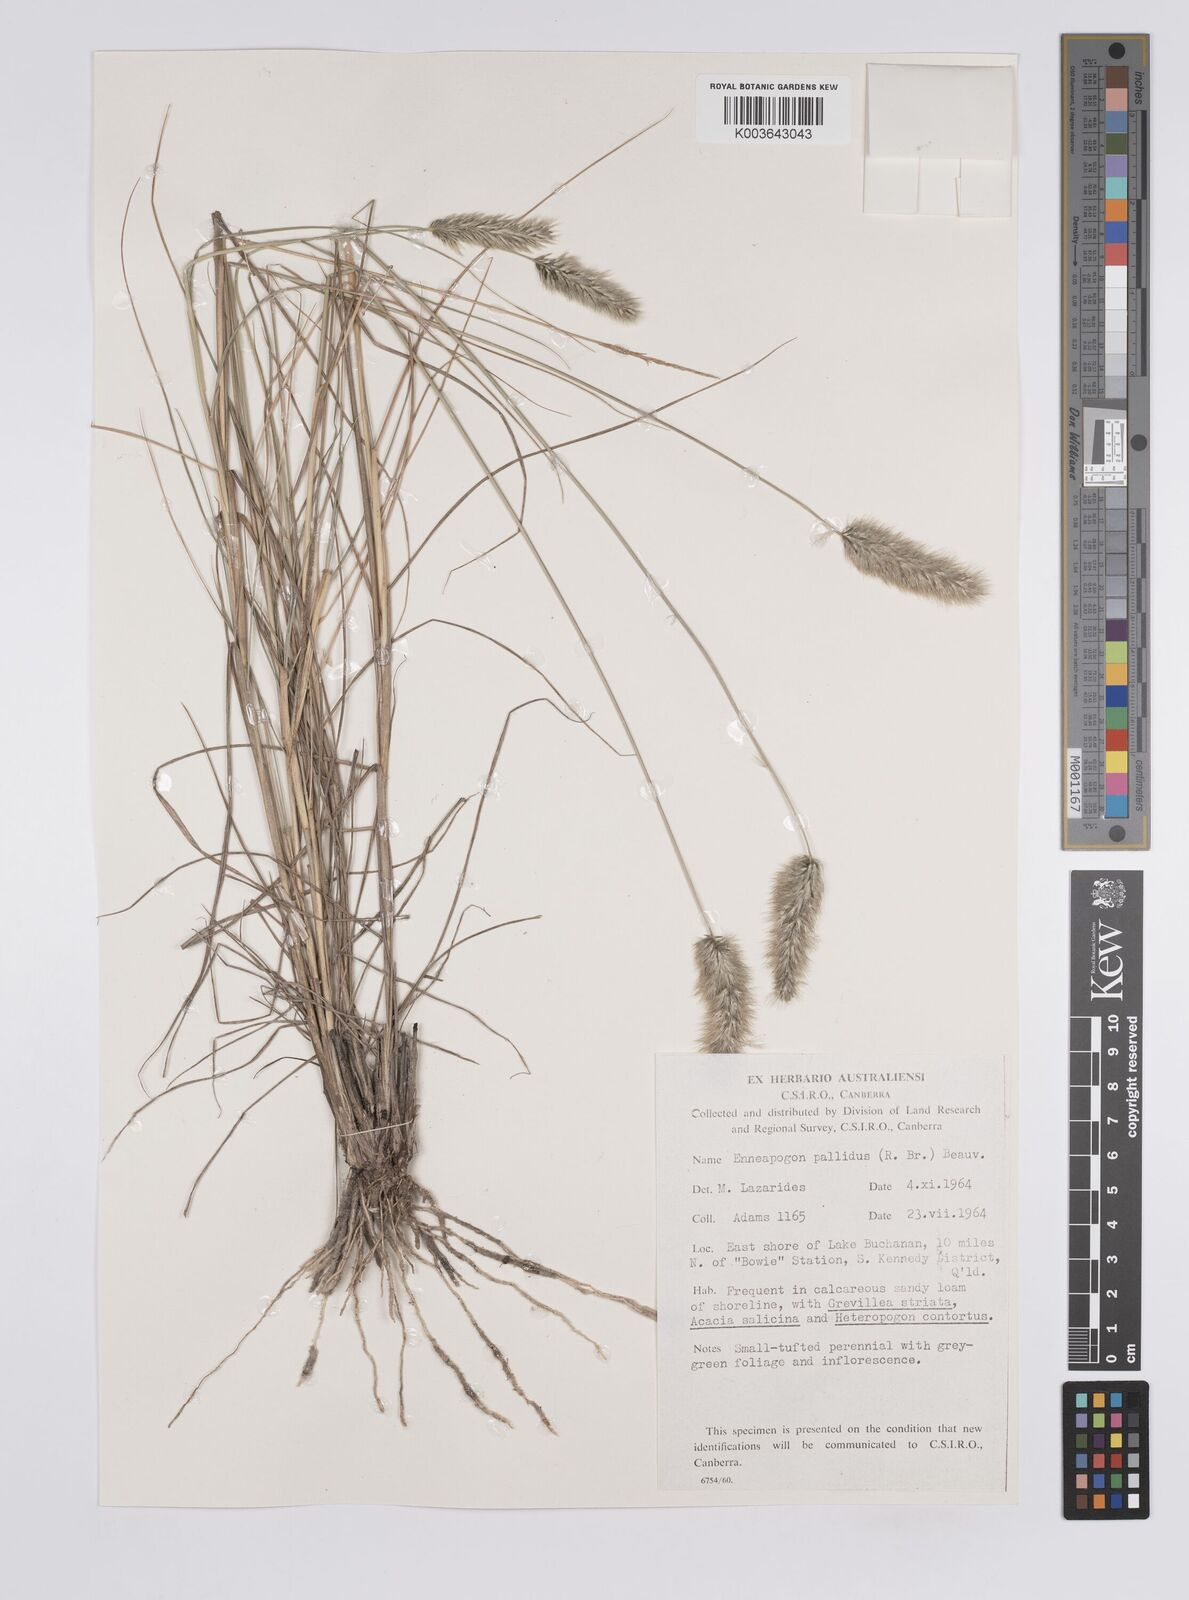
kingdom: Plantae
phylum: Tracheophyta
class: Liliopsida
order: Poales
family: Poaceae
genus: Enneapogon
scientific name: Enneapogon pallidus
